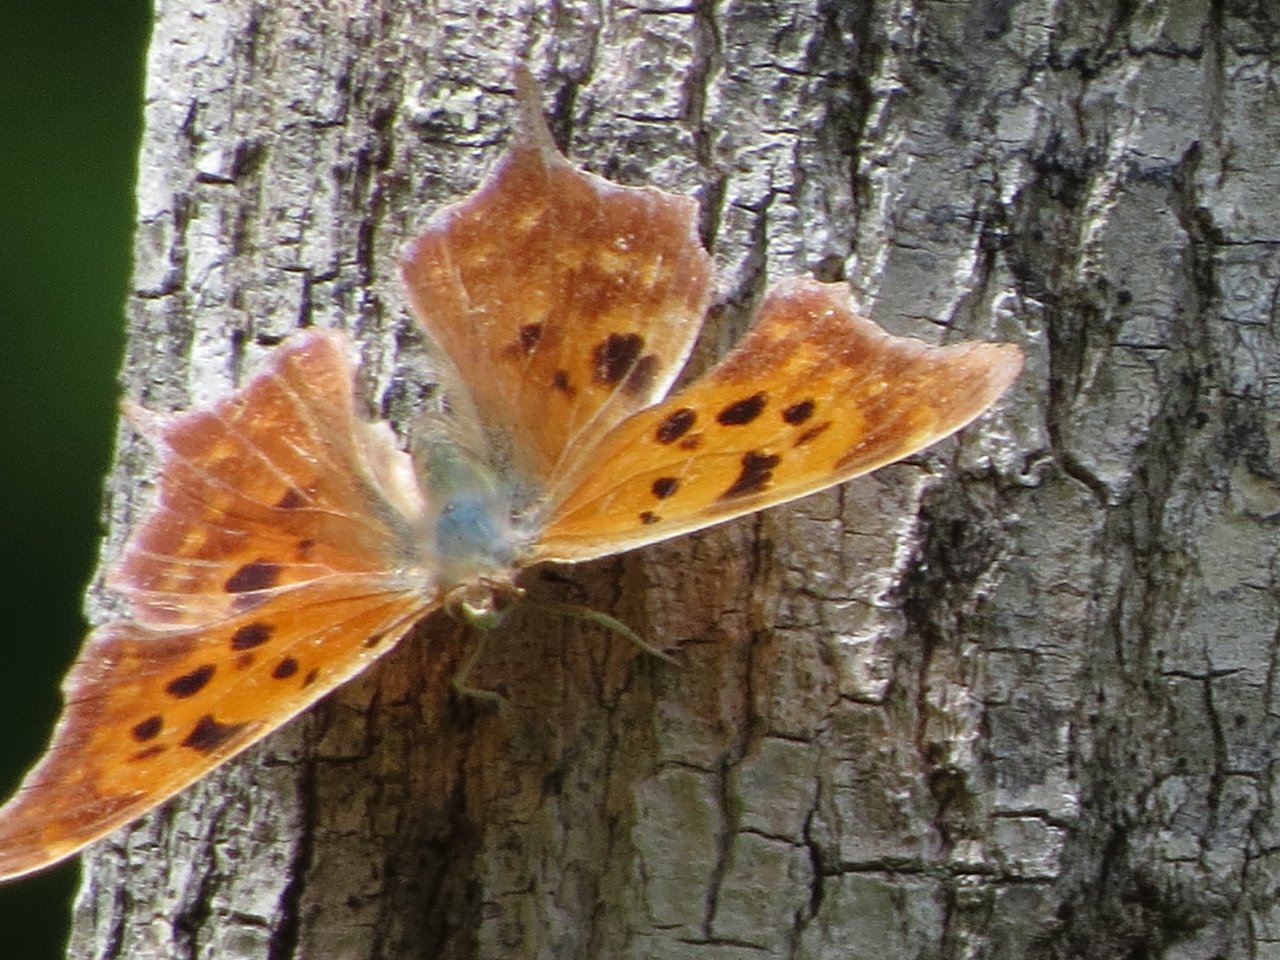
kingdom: Animalia
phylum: Arthropoda
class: Insecta
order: Lepidoptera
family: Nymphalidae
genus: Polygonia
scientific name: Polygonia interrogationis
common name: Question Mark
